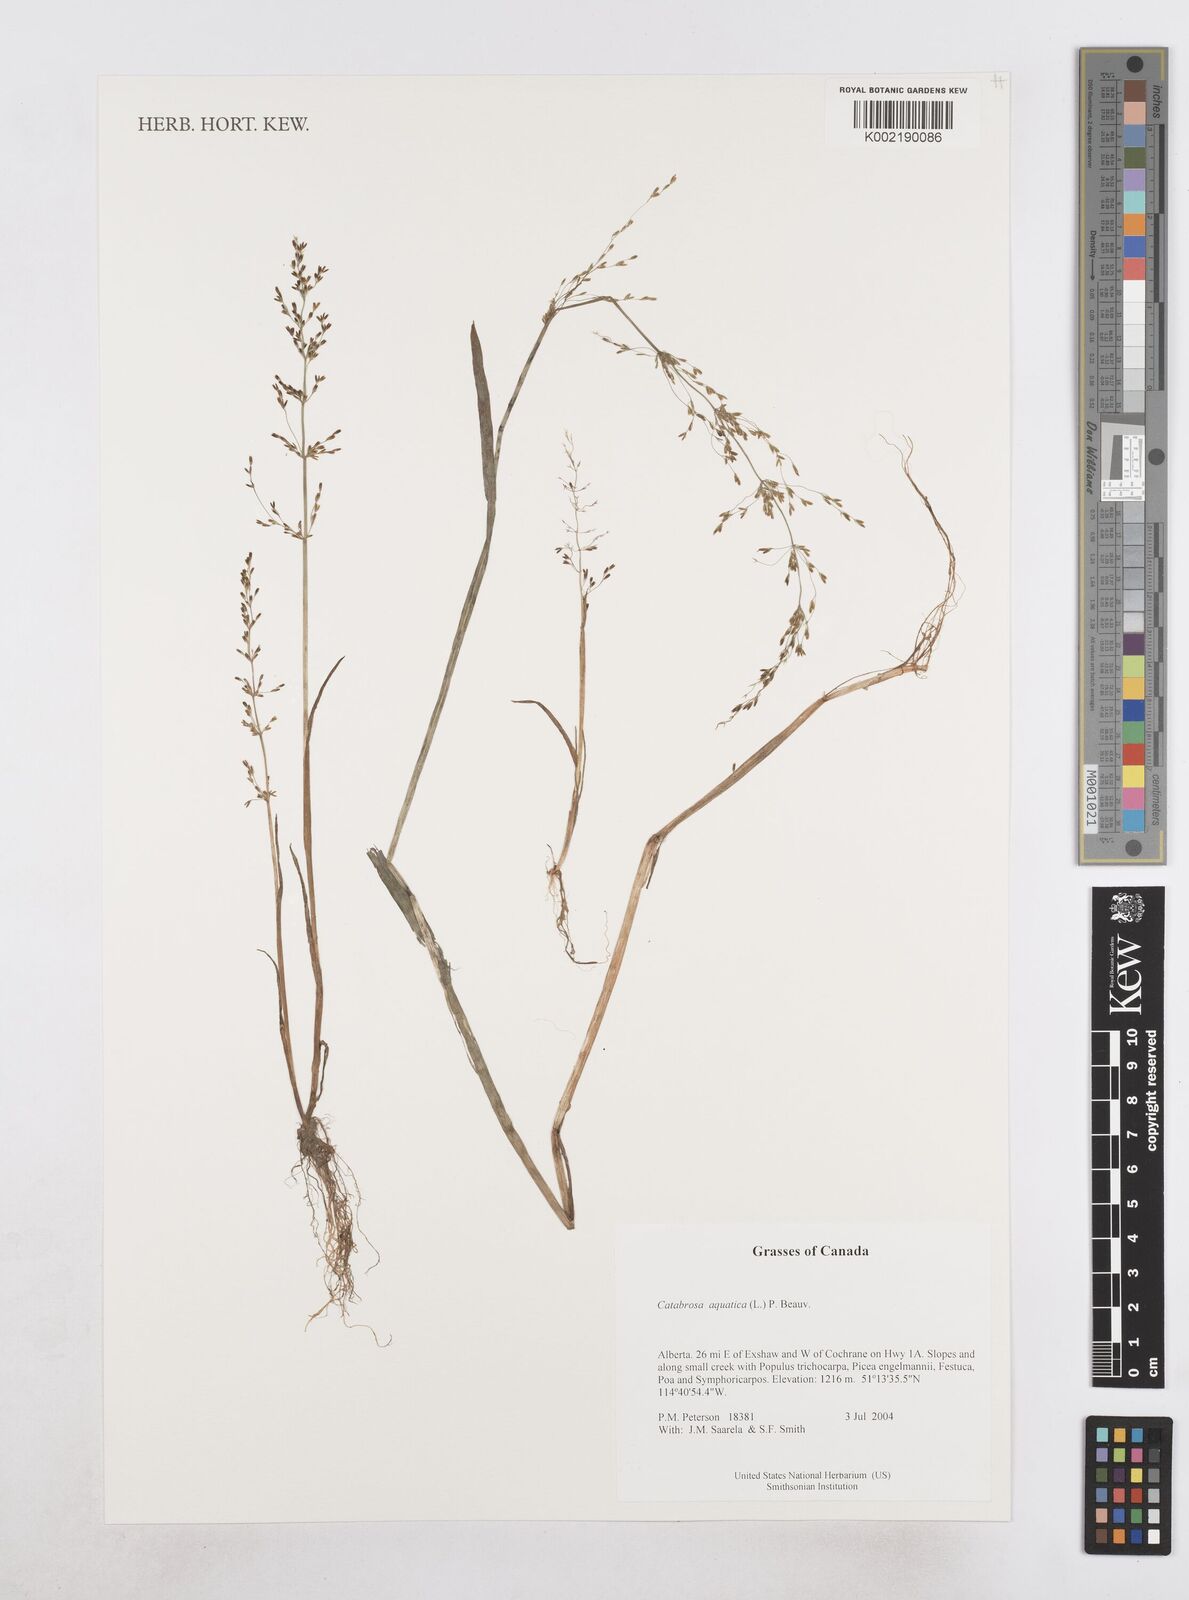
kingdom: Plantae
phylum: Tracheophyta
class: Liliopsida
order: Poales
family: Poaceae
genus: Catabrosa
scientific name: Catabrosa aquatica
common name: Whorl-grass
